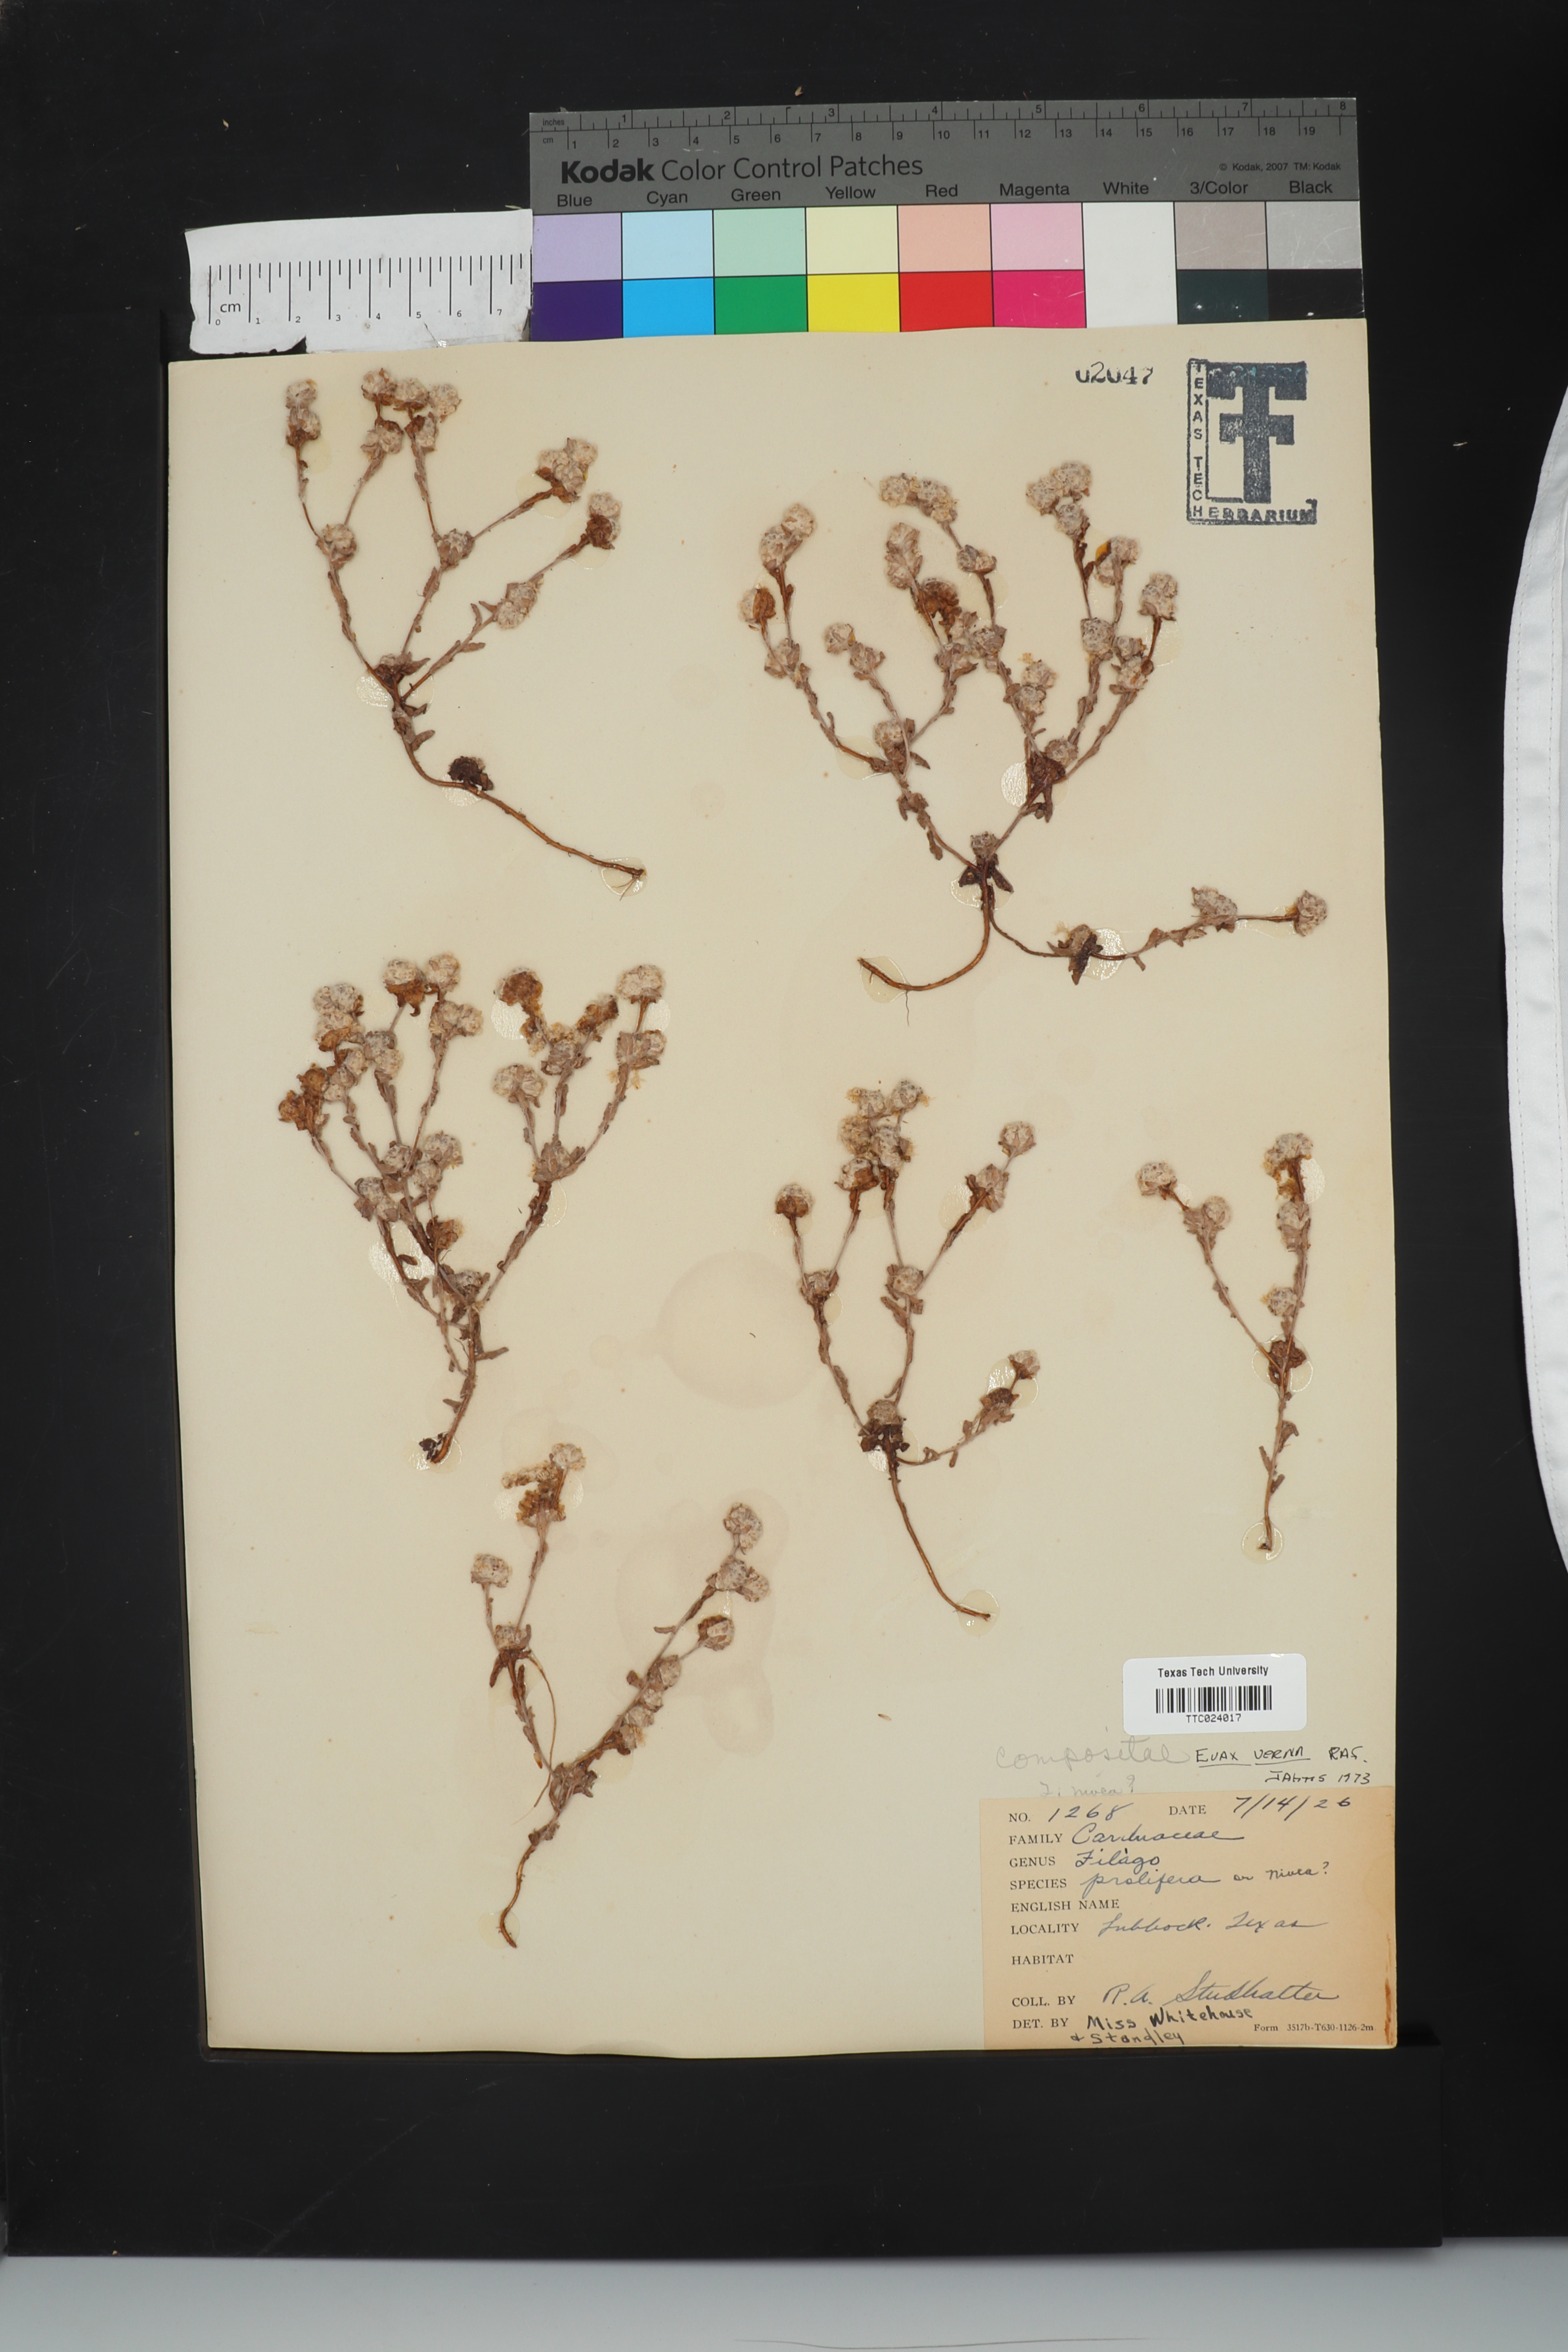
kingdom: Plantae
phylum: Tracheophyta
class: Magnoliopsida
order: Asterales
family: Asteraceae
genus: Diaperia
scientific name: Diaperia verna
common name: Many-stem rabbit-tobacco
